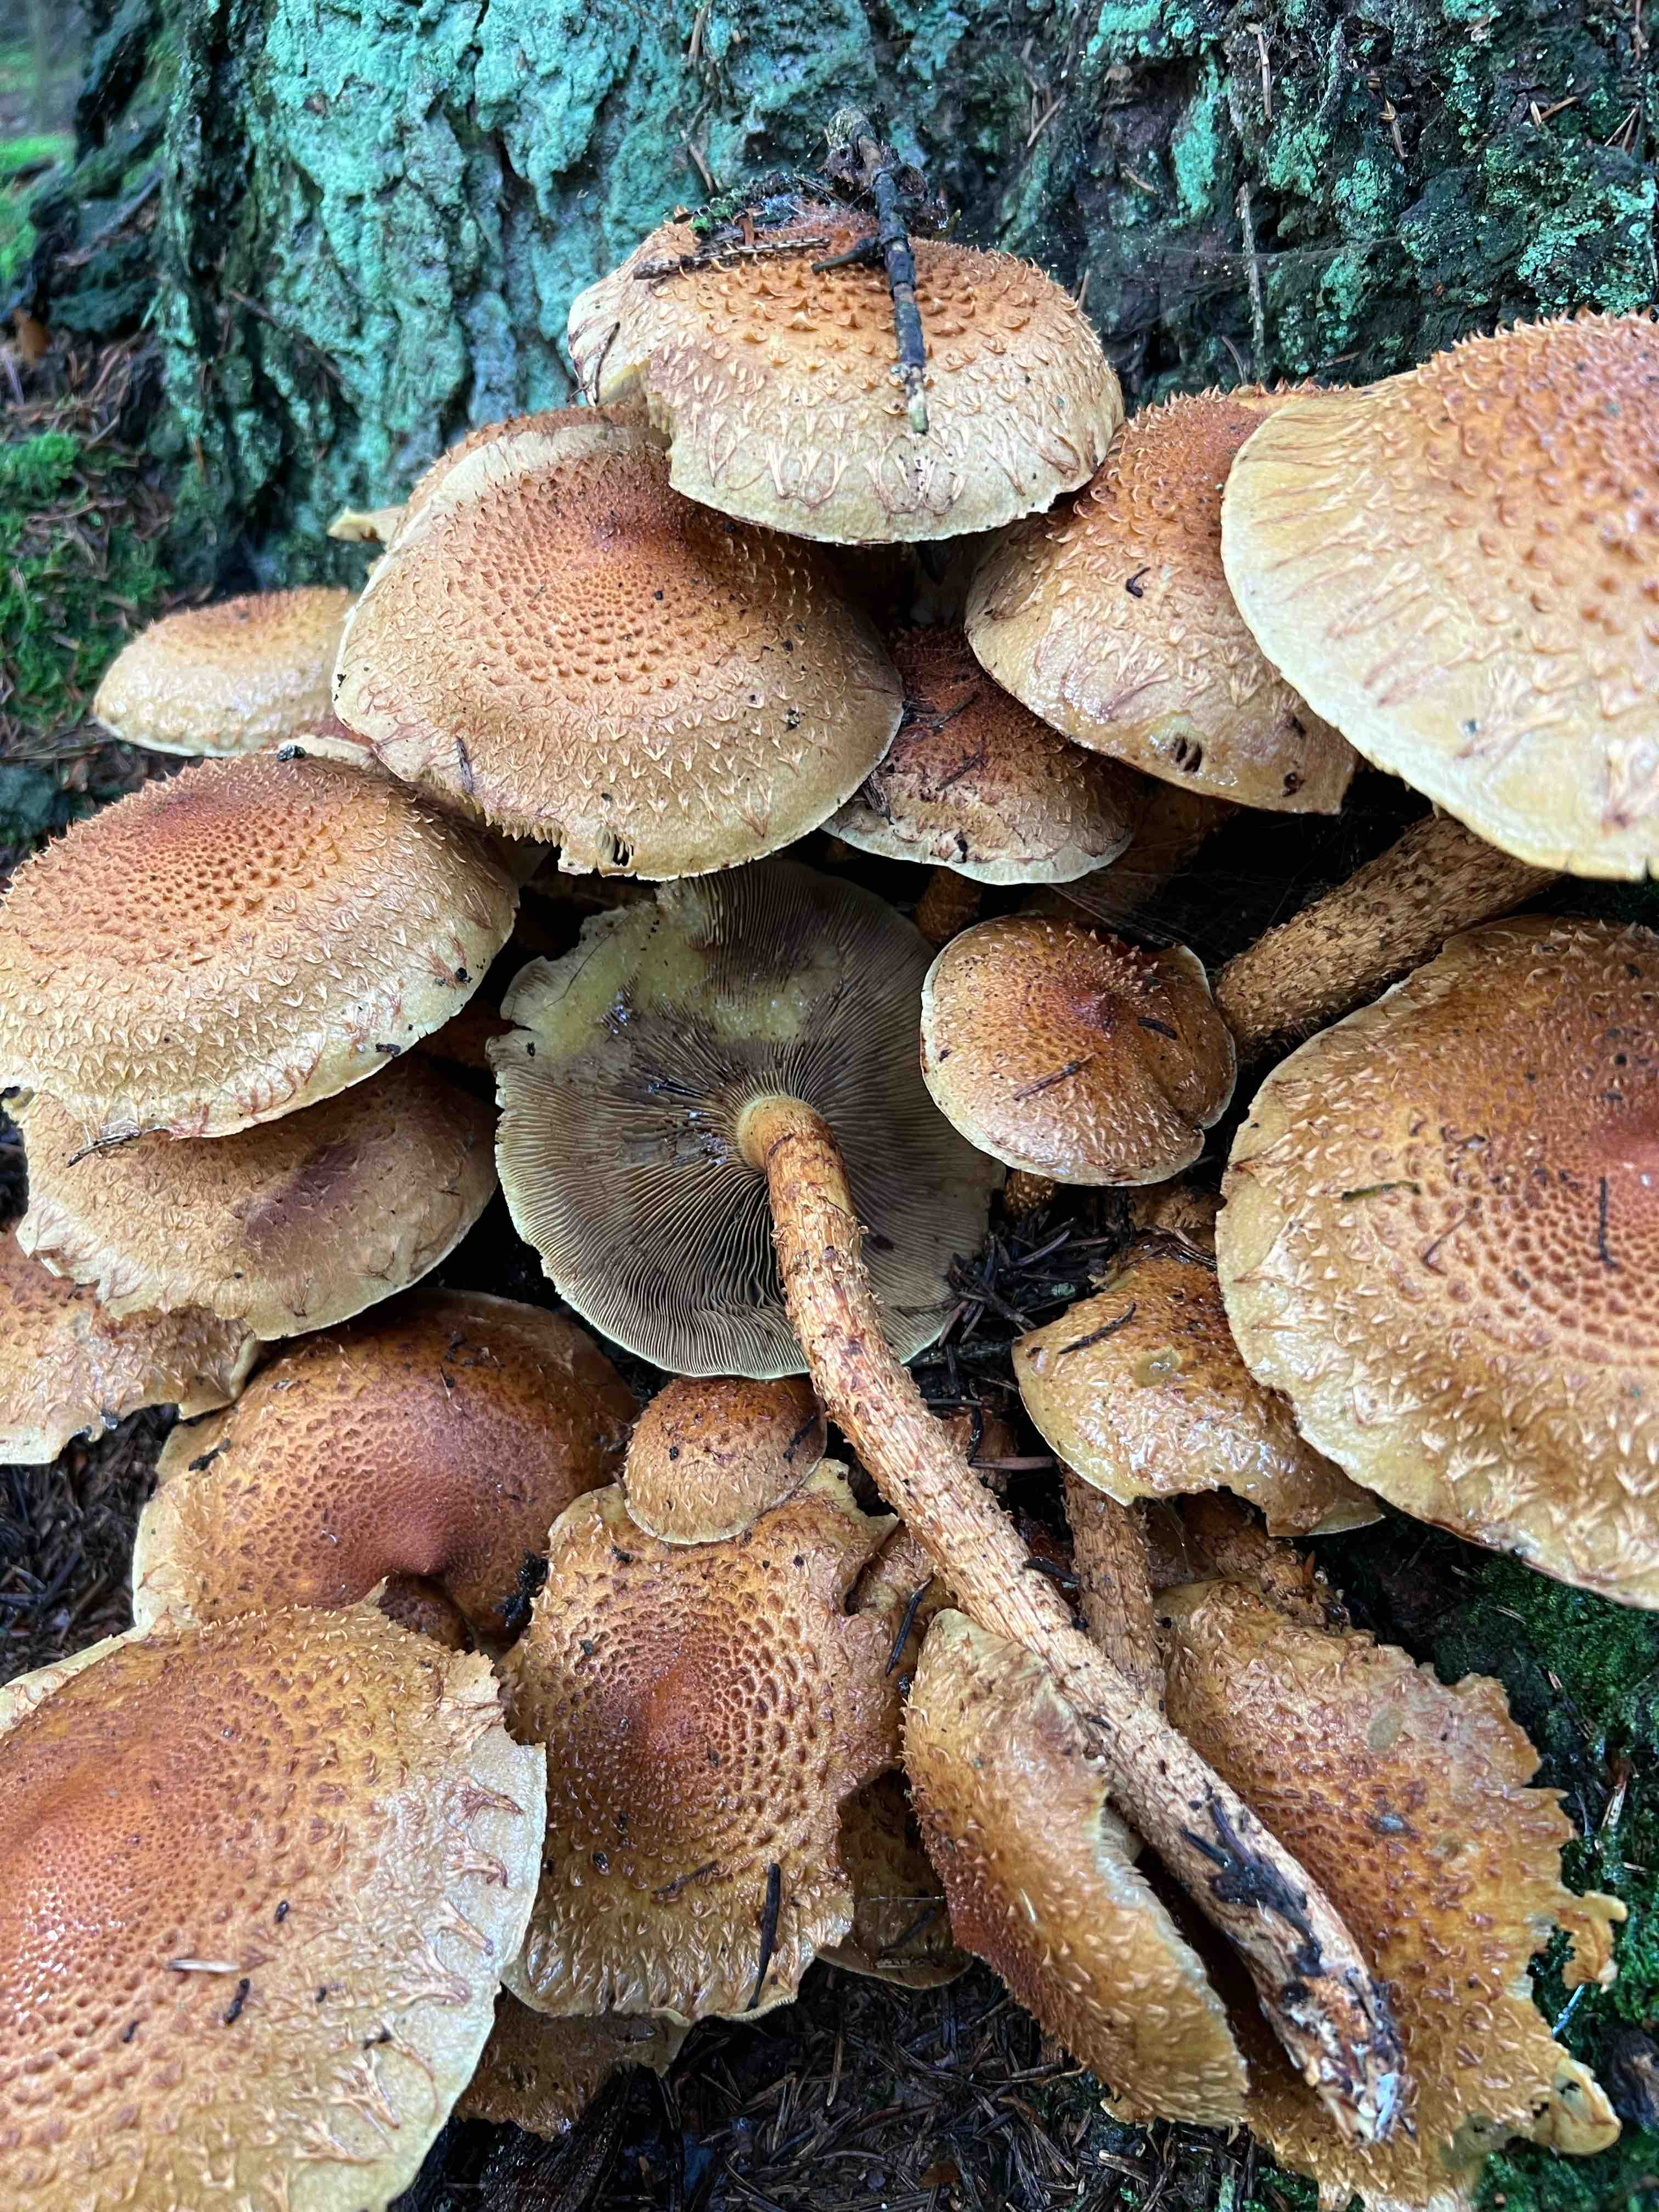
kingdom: Fungi
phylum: Basidiomycota
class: Agaricomycetes
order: Agaricales
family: Strophariaceae
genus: Pholiota
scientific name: Pholiota squarrosa
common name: krumskællet skælhat
